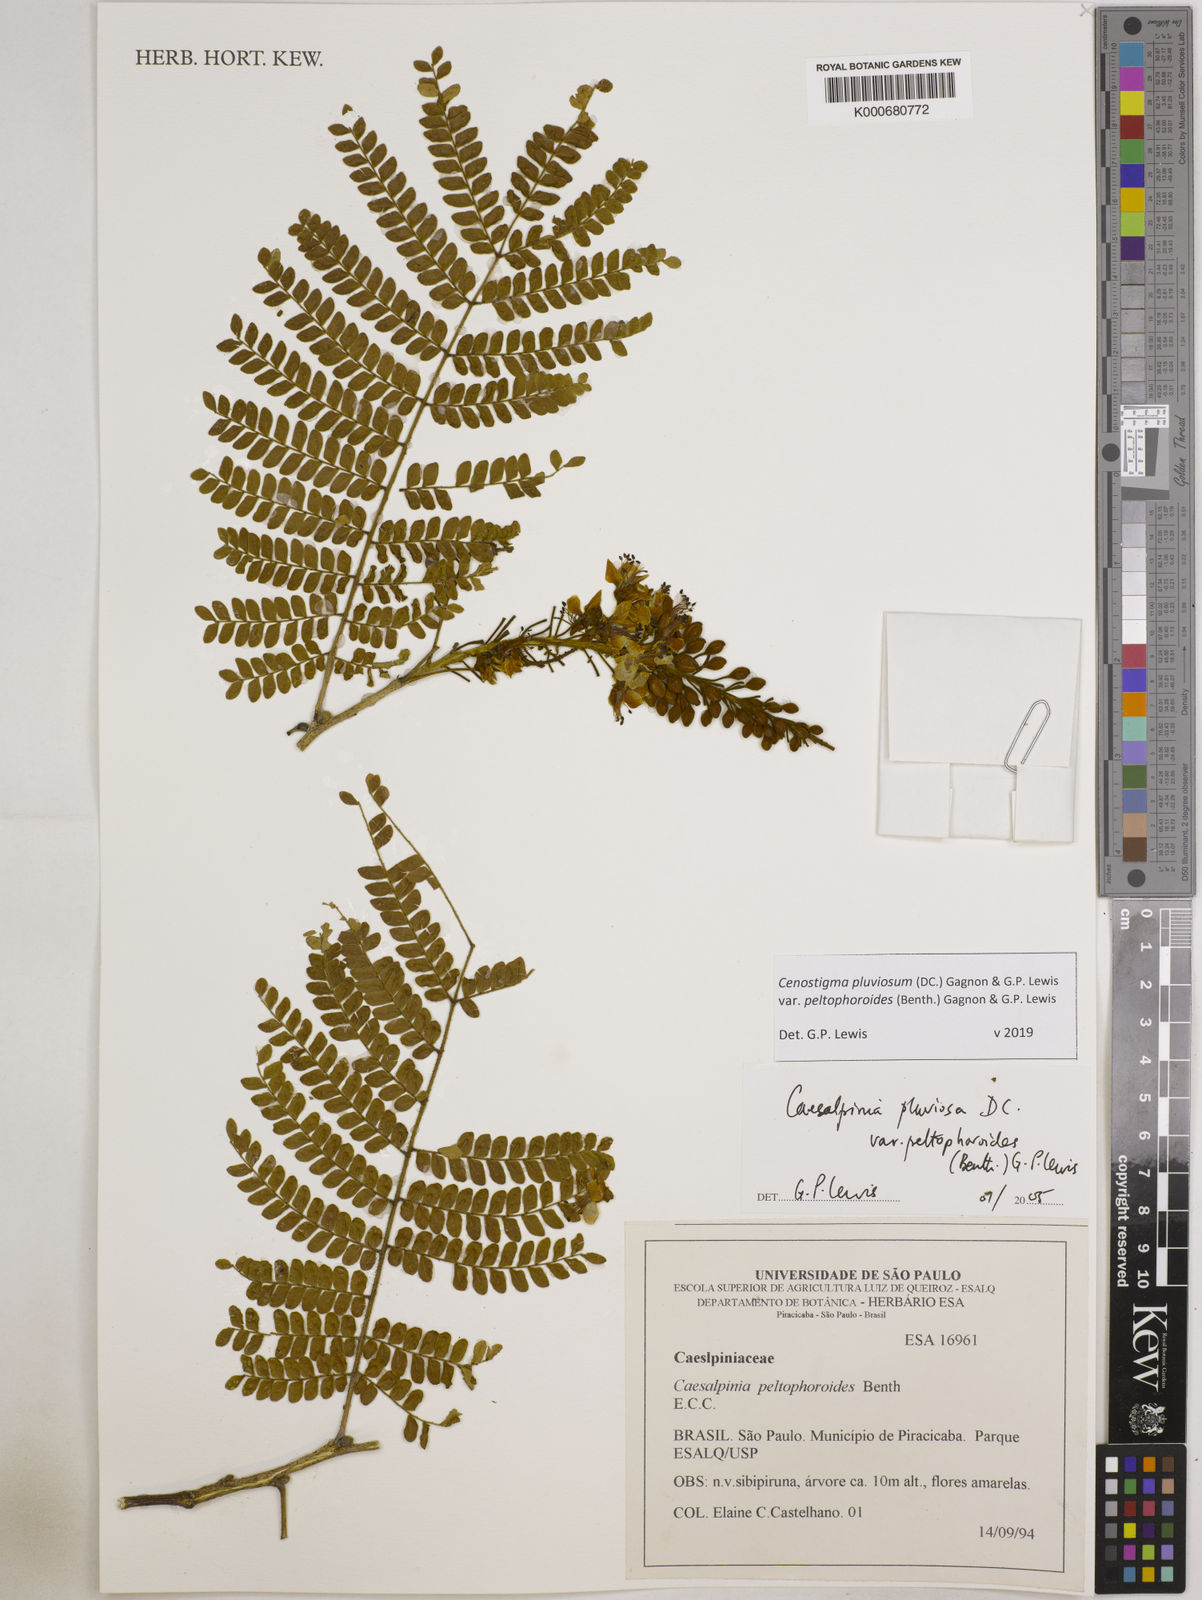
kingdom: Plantae
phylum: Tracheophyta
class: Magnoliopsida
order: Fabales
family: Fabaceae
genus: Cenostigma
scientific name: Cenostigma pluviosum
